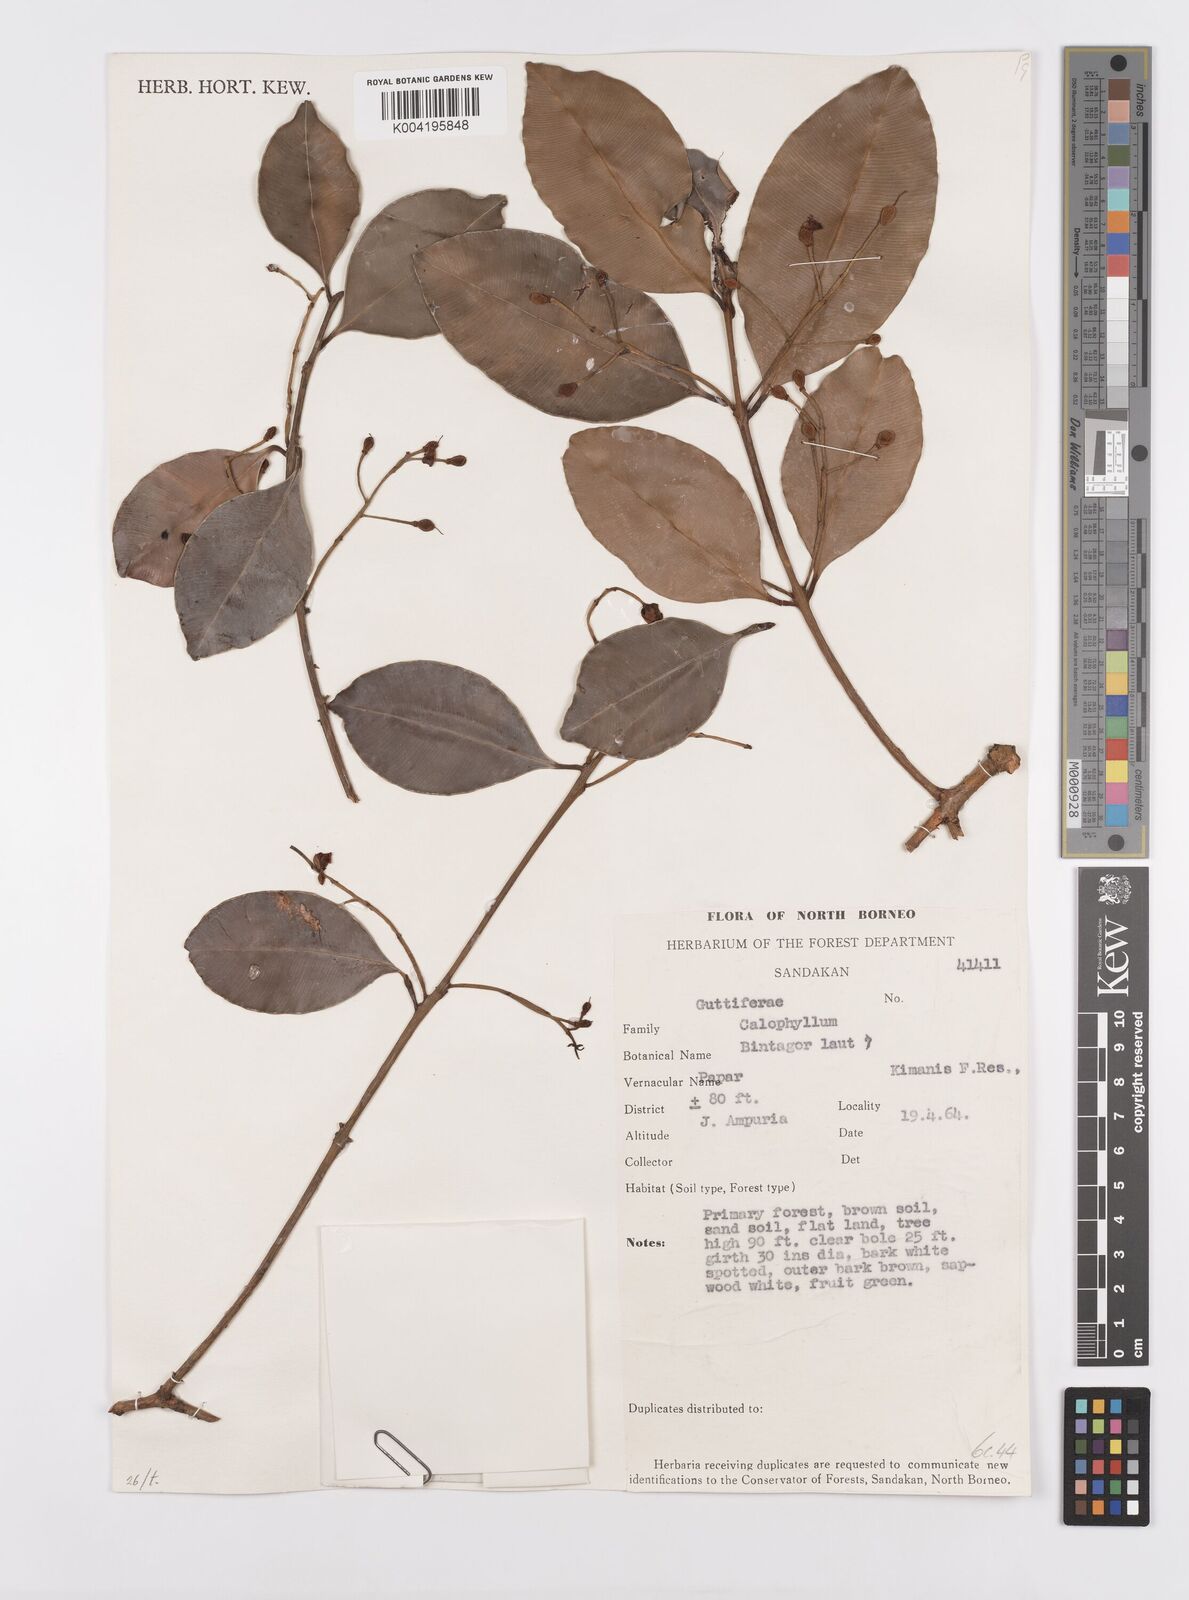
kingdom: Plantae
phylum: Tracheophyta
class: Magnoliopsida
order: Malpighiales
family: Calophyllaceae
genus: Calophyllum
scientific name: Calophyllum tetrapterum
